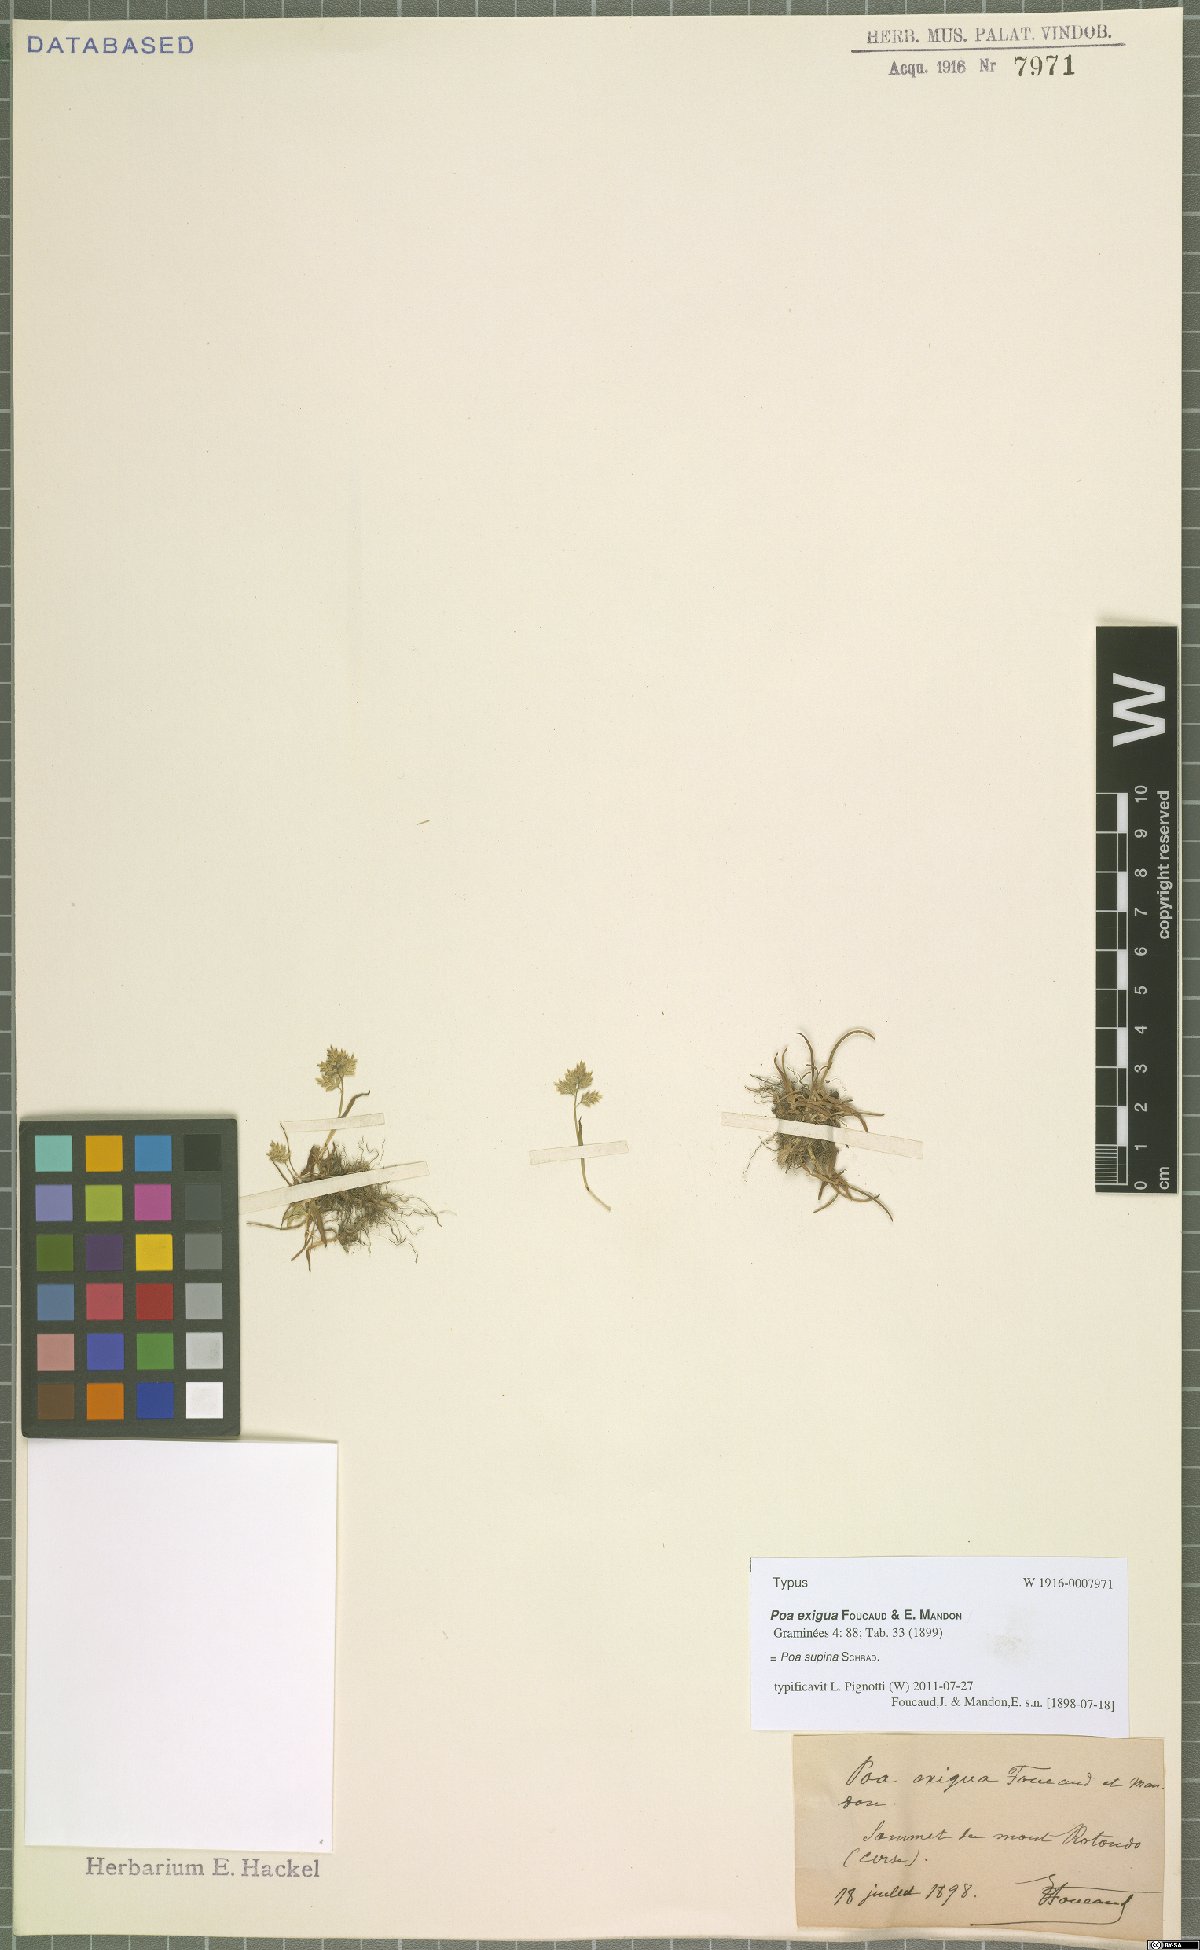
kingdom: Plantae
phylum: Tracheophyta
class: Liliopsida
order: Poales
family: Poaceae
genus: Poa
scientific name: Poa supina
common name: Supina bluegrass
